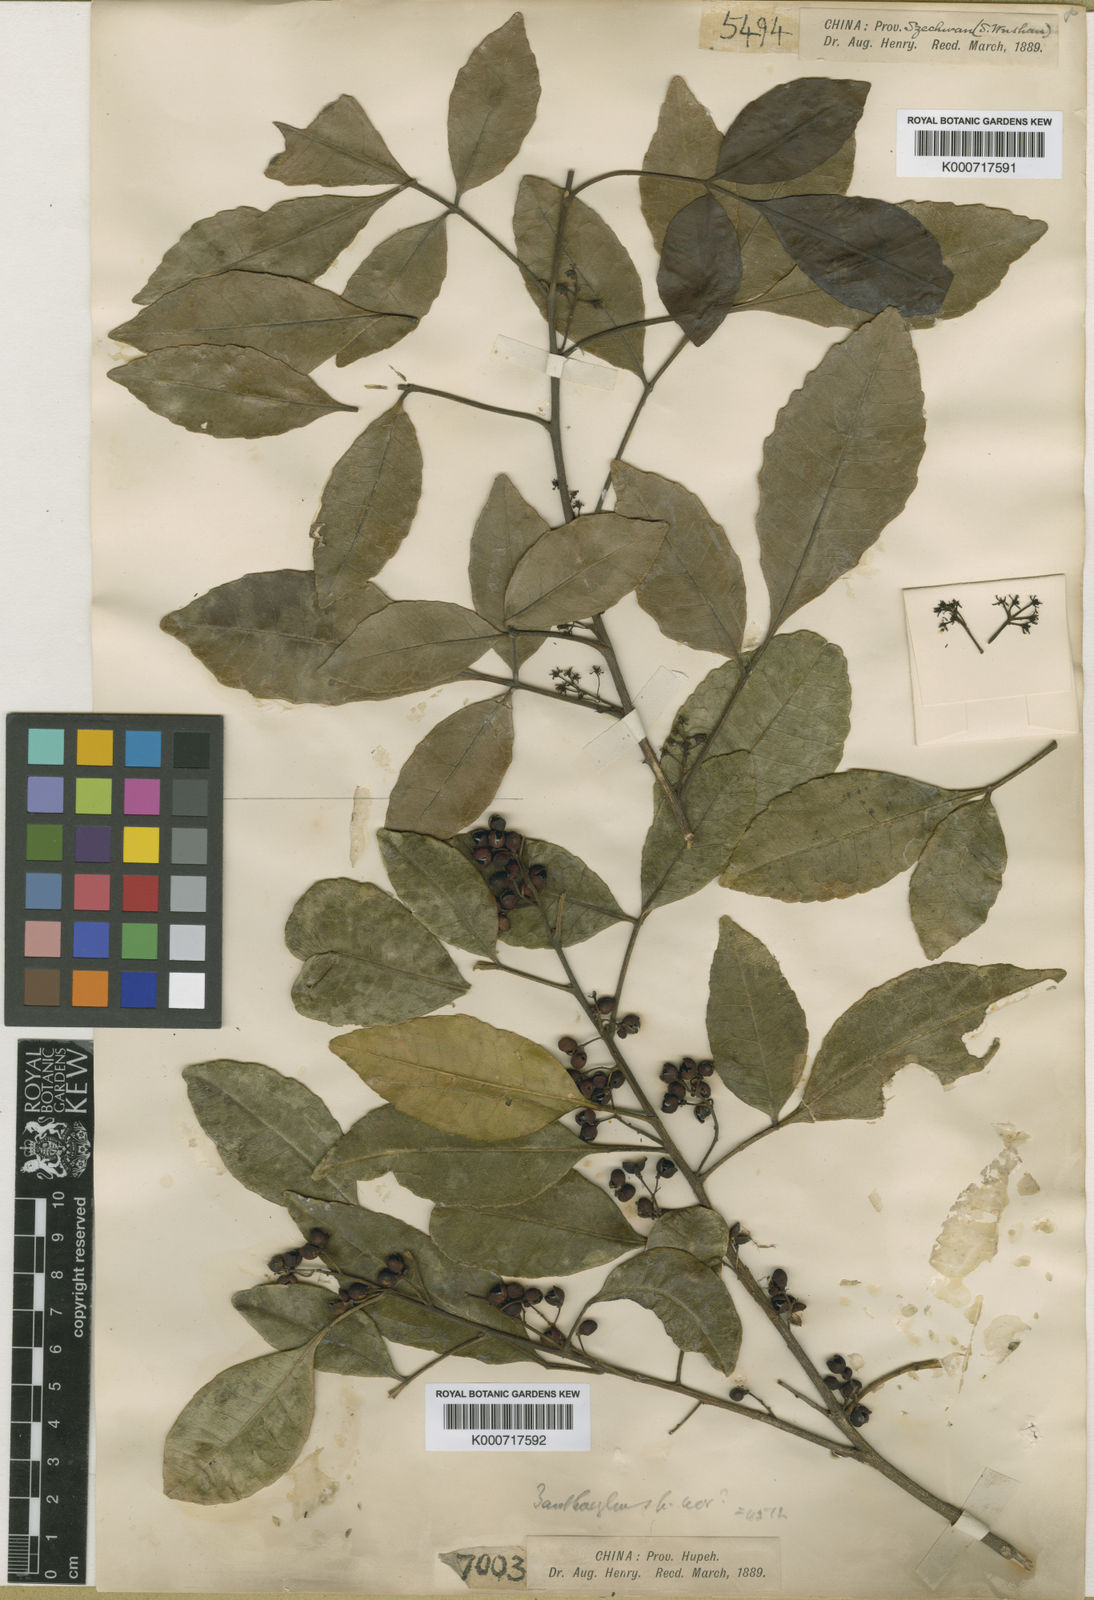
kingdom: Plantae
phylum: Tracheophyta
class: Magnoliopsida
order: Sapindales
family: Rutaceae
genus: Zanthoxylum
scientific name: Zanthoxylum dimorphophyllum
